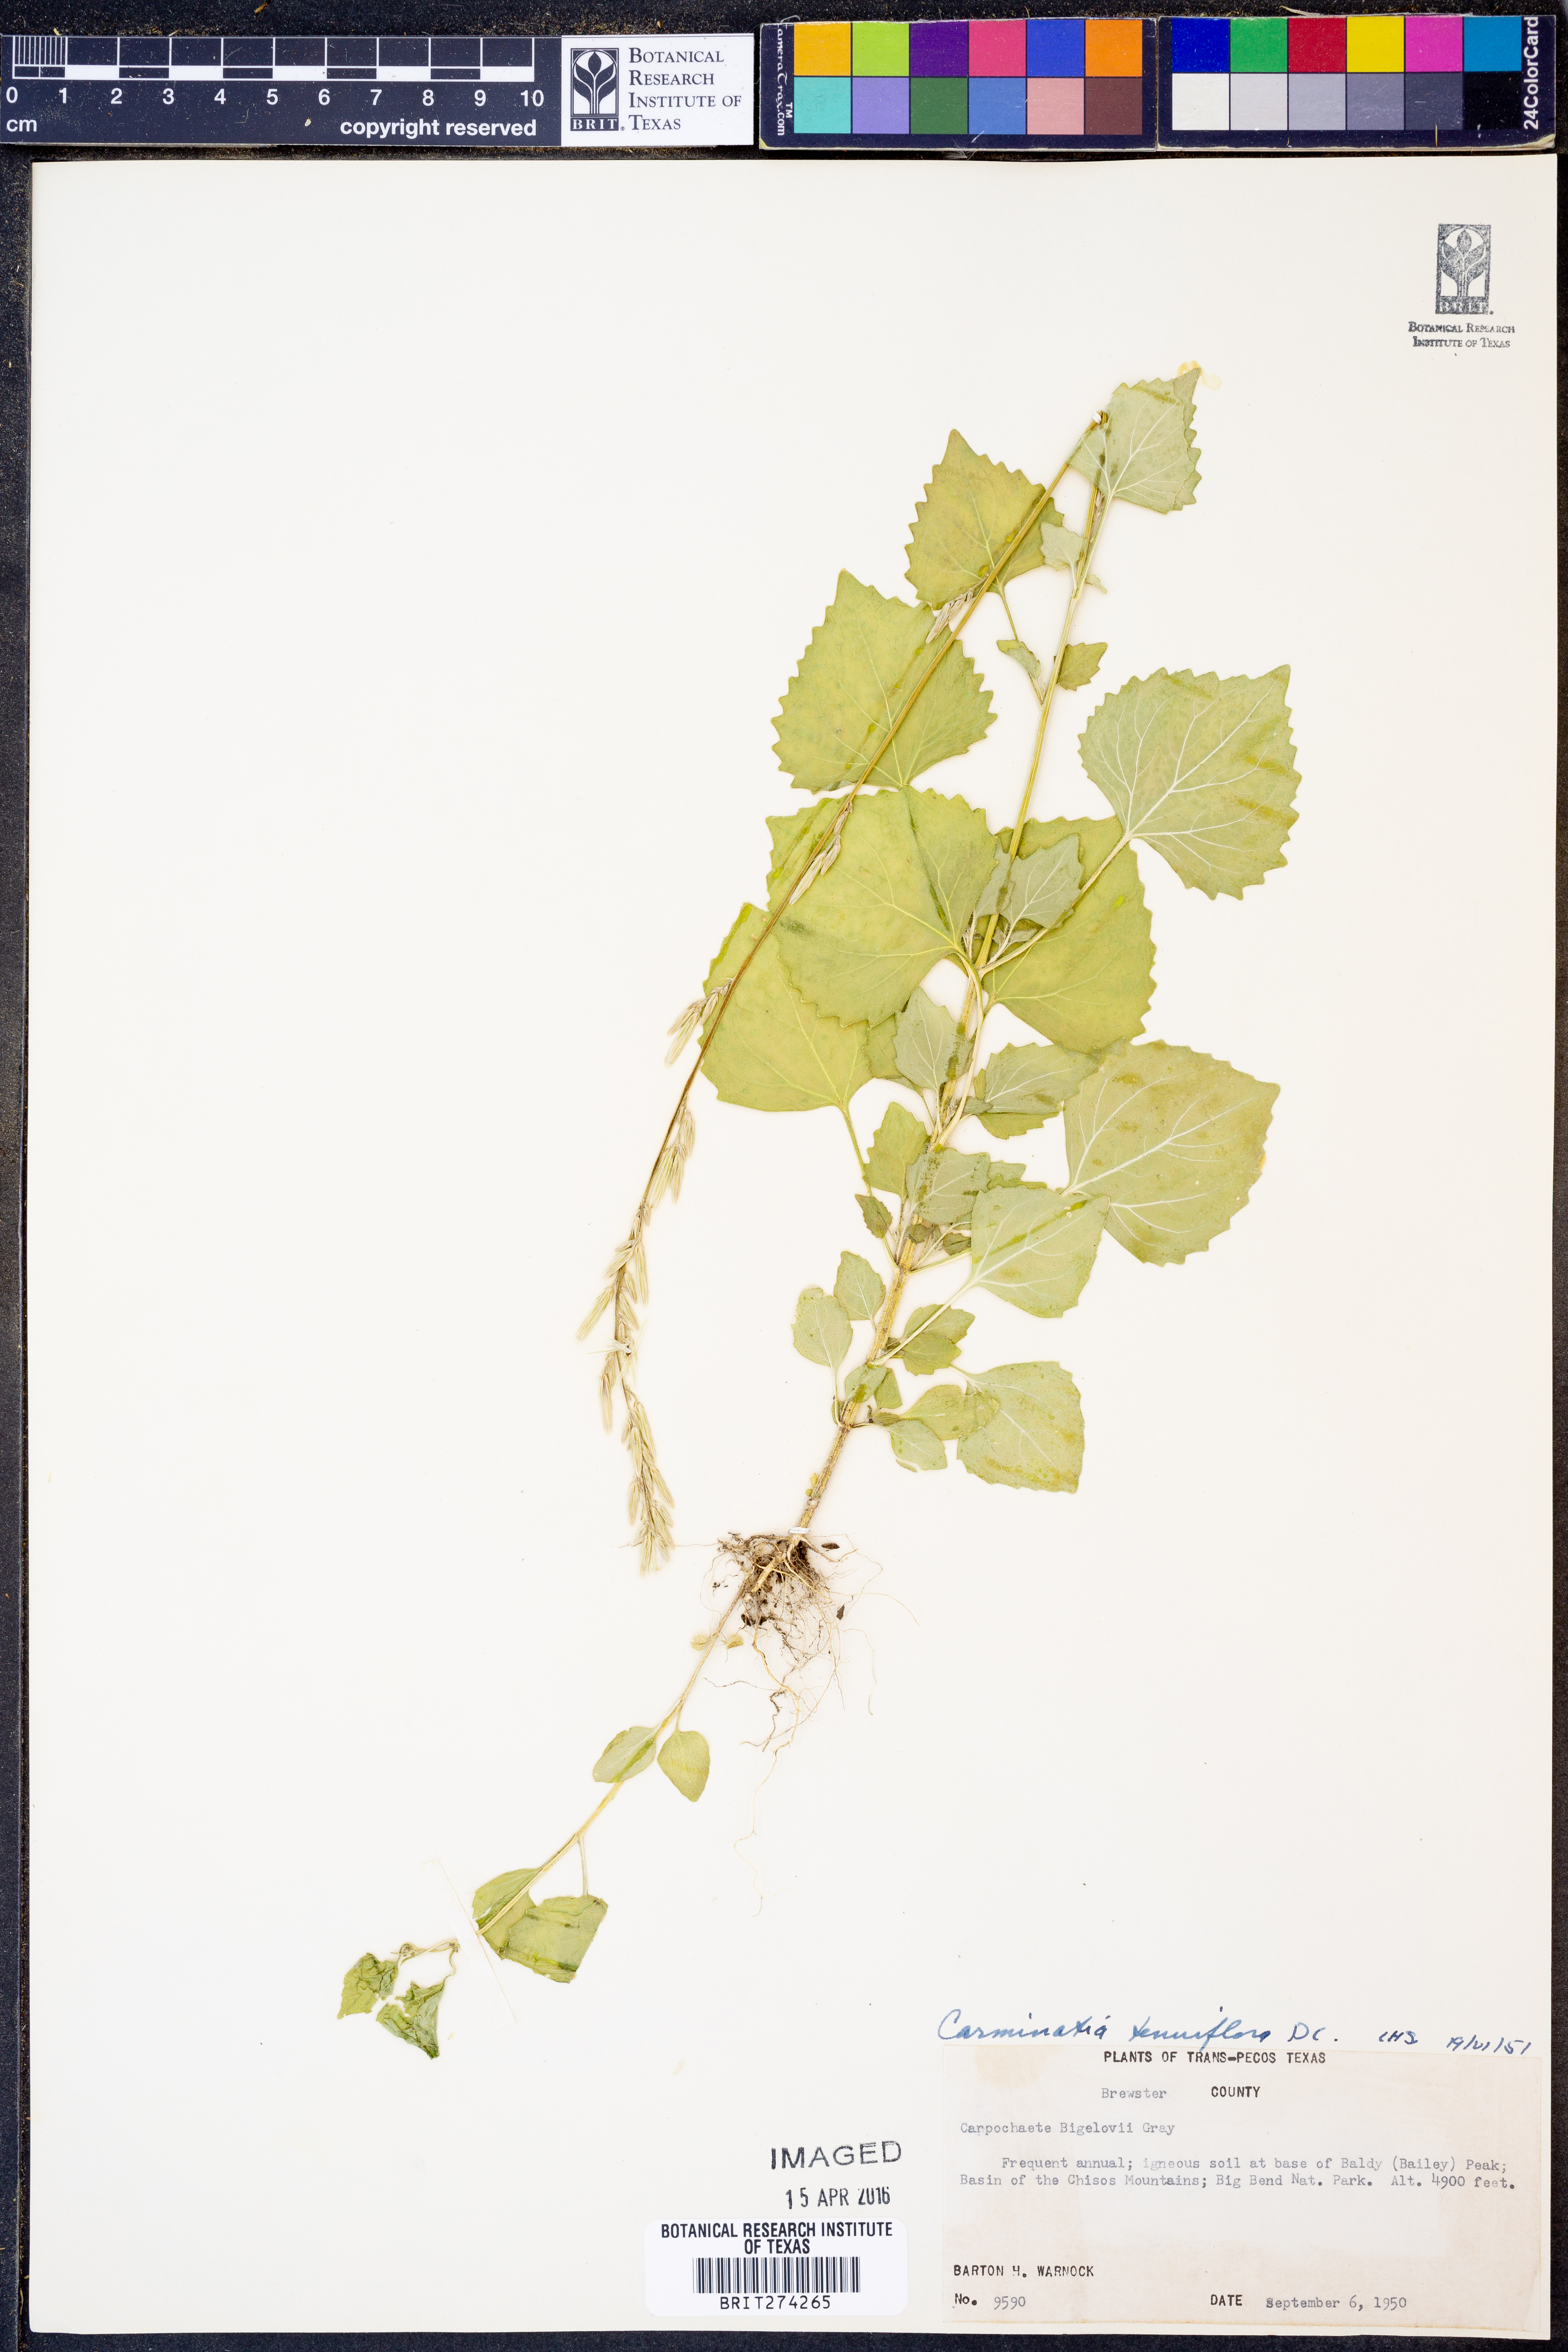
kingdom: Plantae
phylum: Tracheophyta
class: Magnoliopsida
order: Asterales
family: Asteraceae
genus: Carminatia
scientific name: Carminatia tenuiflora
